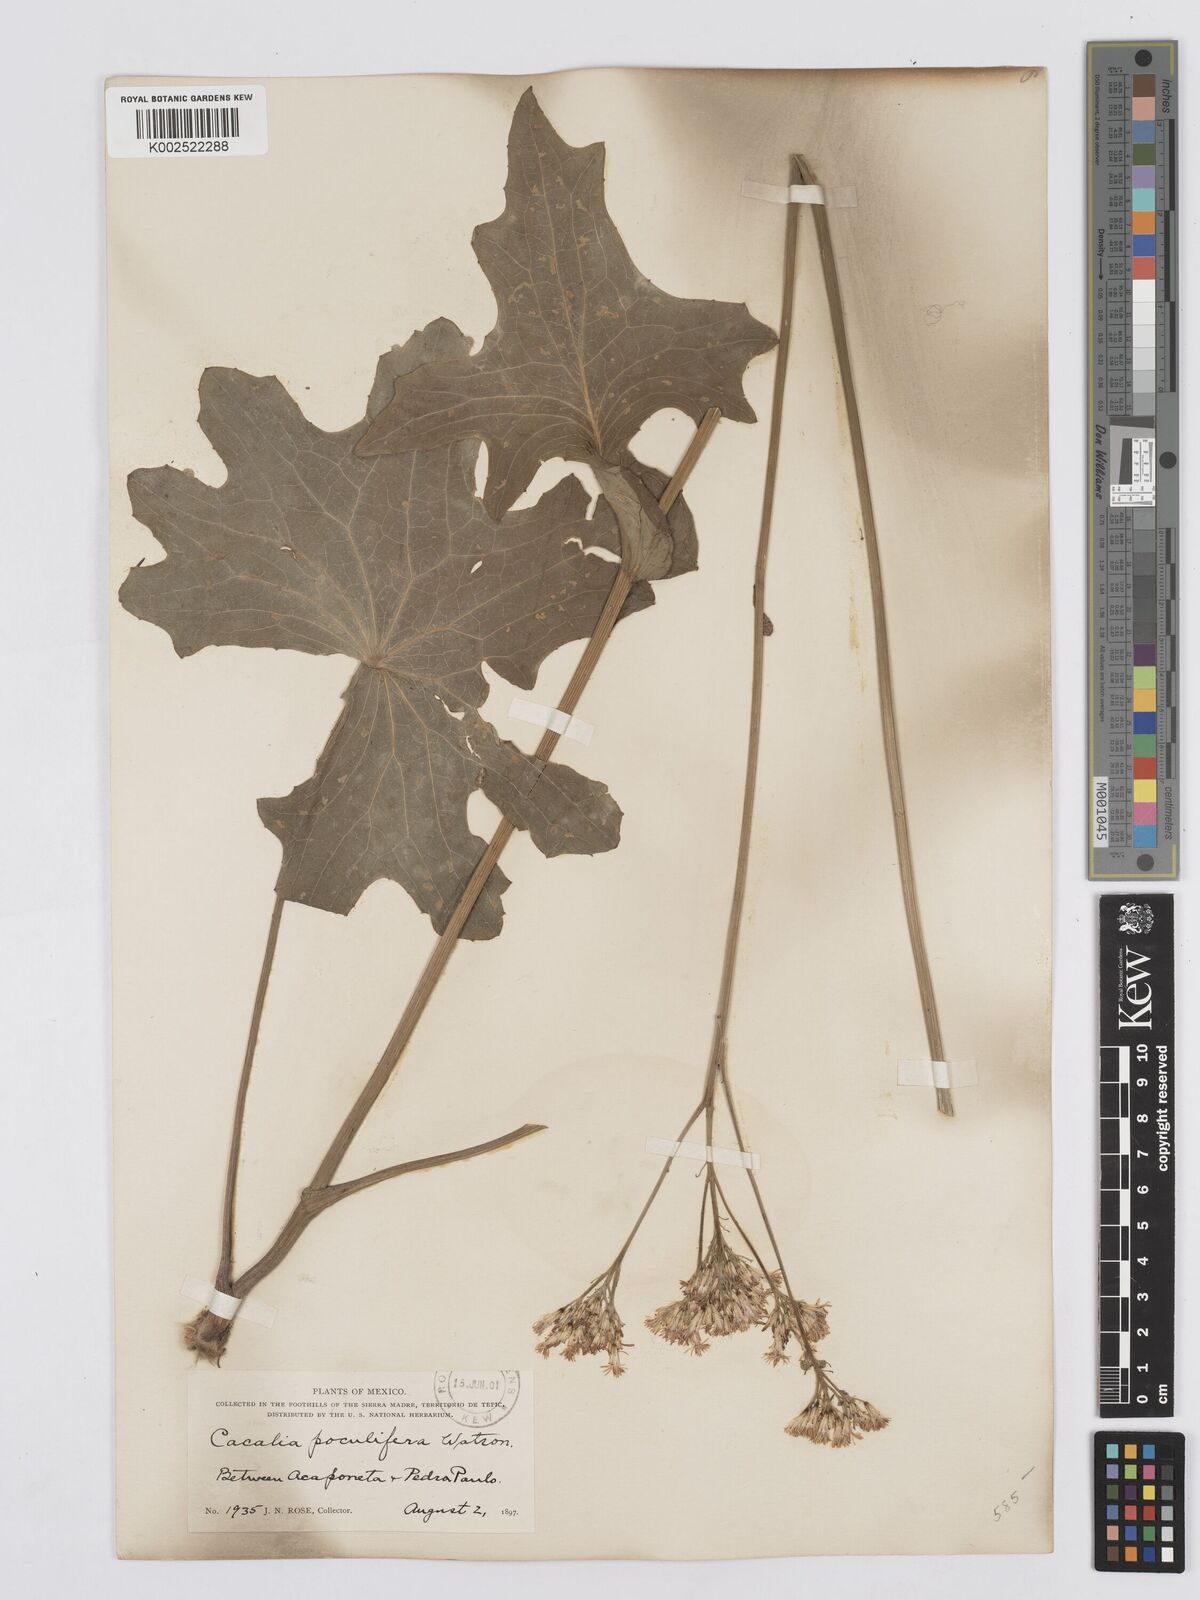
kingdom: Plantae
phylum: Tracheophyta
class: Magnoliopsida
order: Asterales
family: Asteraceae
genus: Psacalium
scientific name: Psacalium poculiferum
